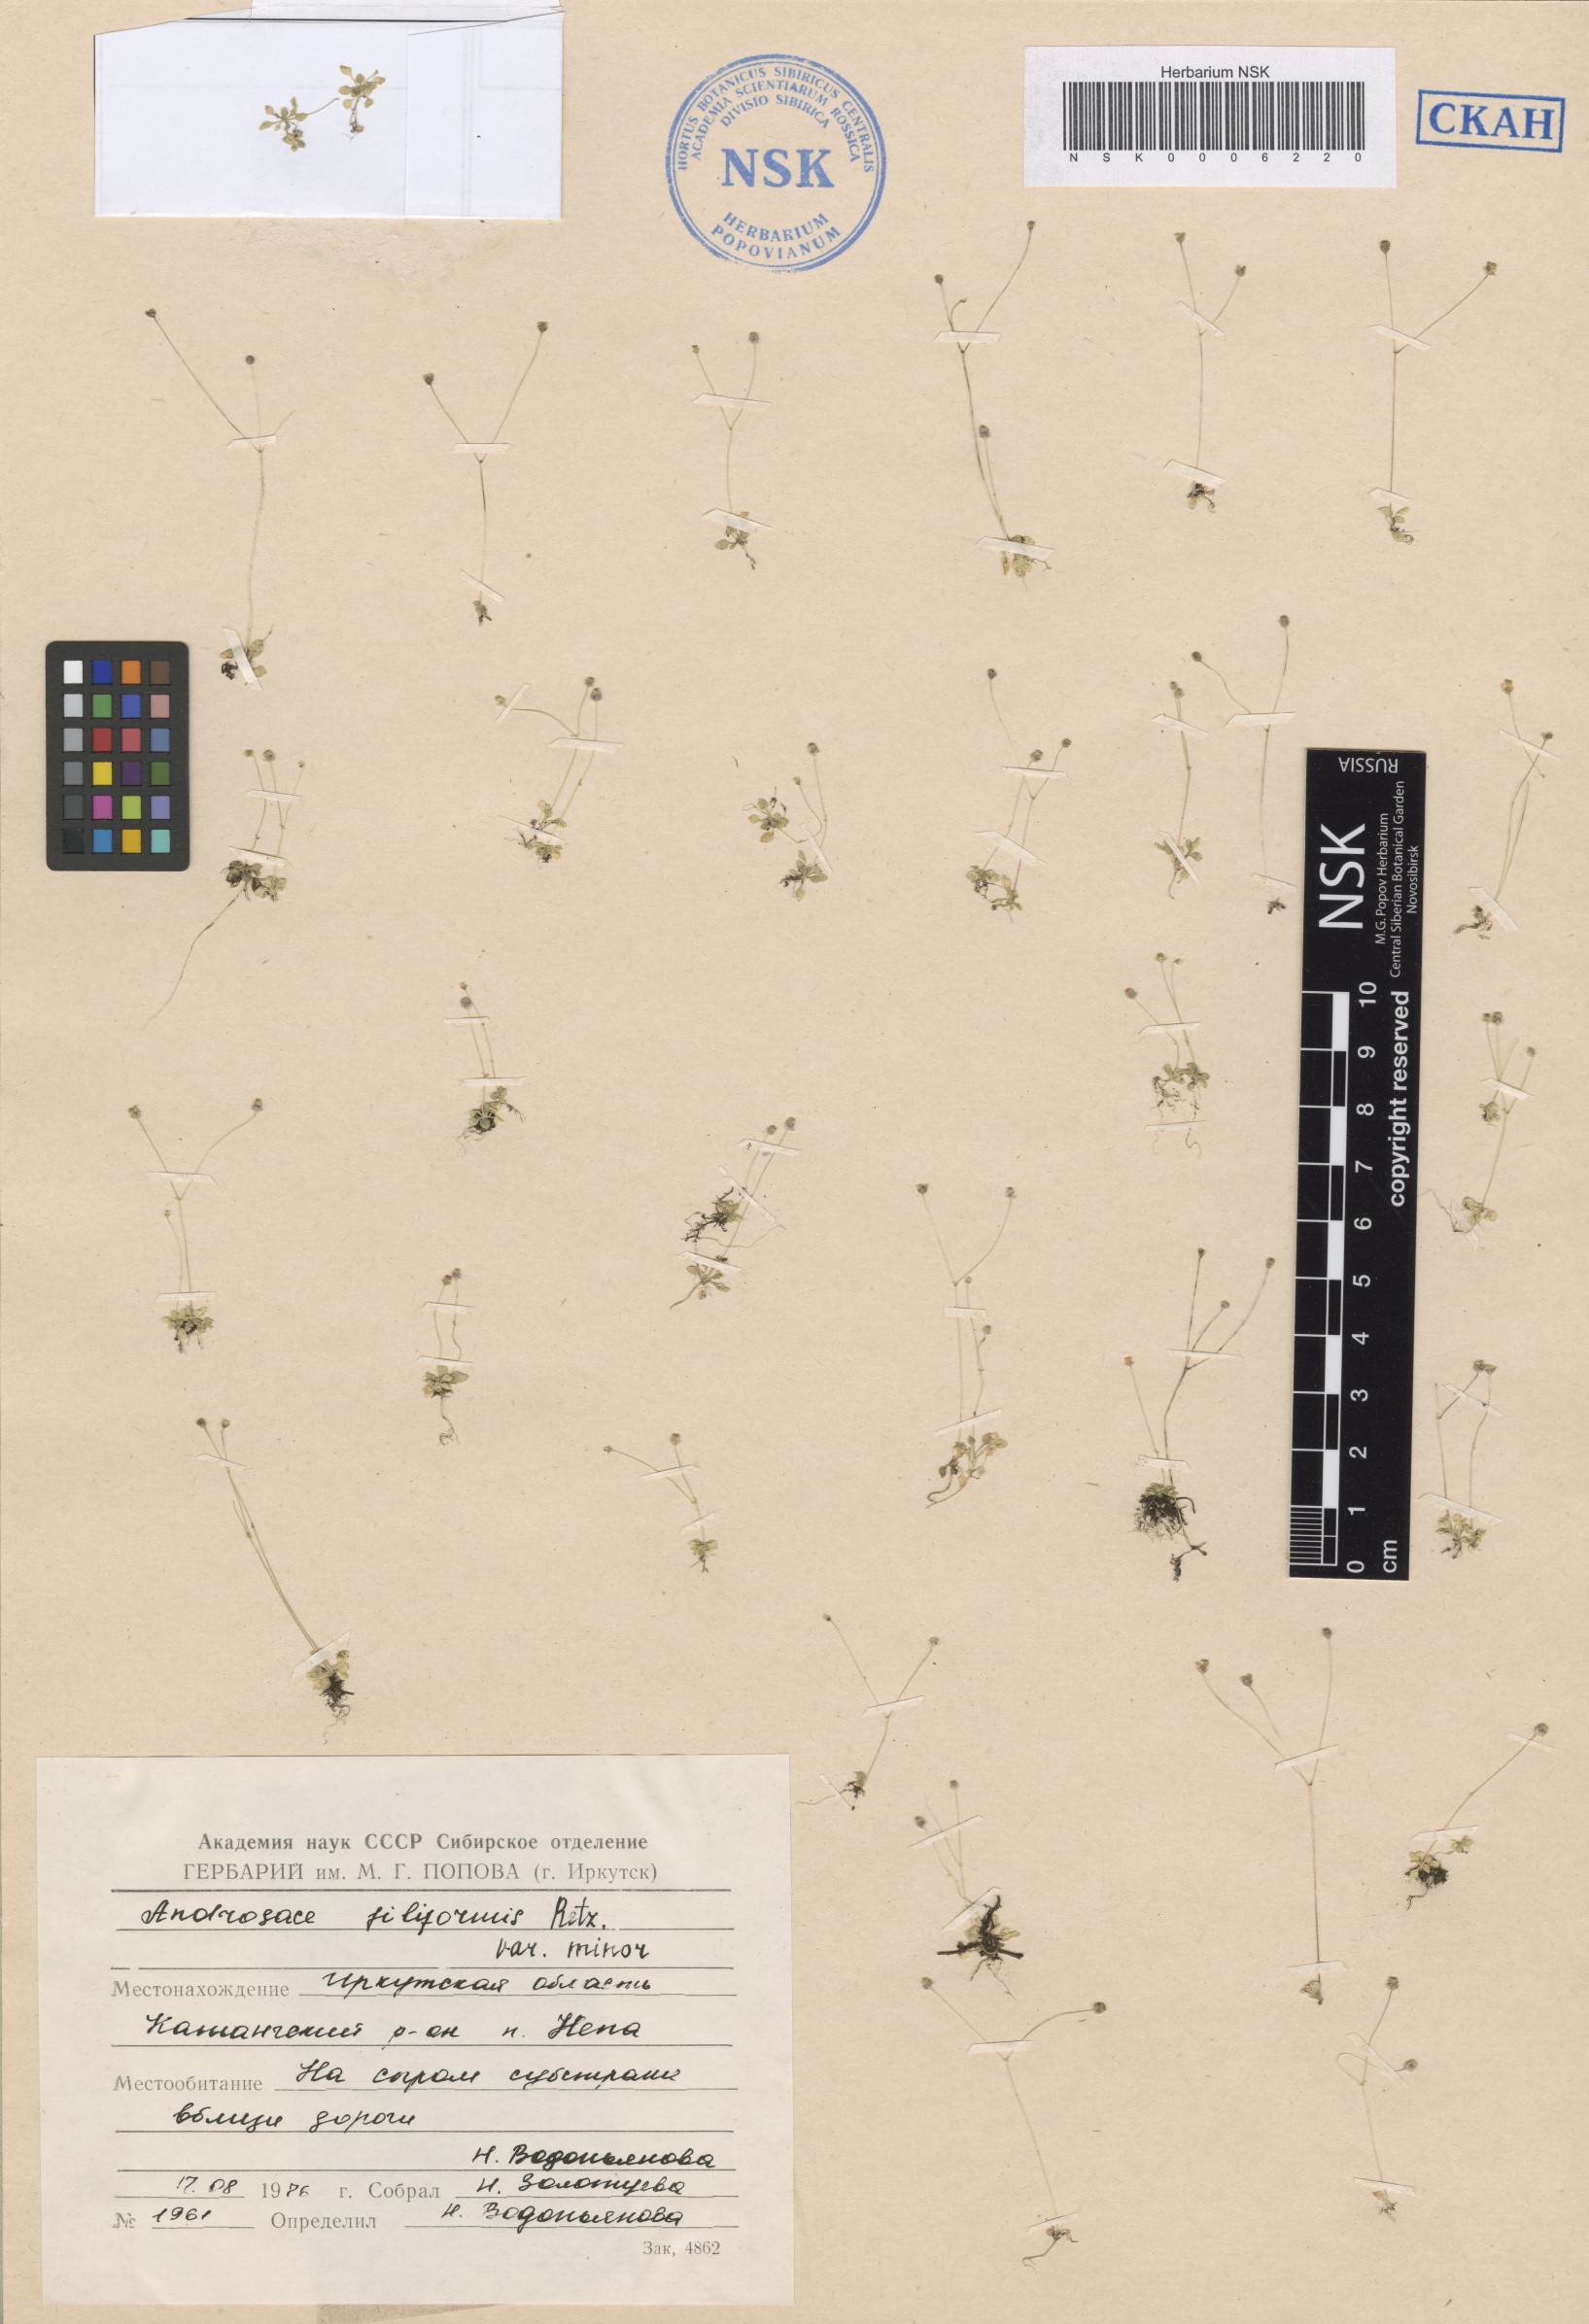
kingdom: Plantae
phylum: Tracheophyta
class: Magnoliopsida
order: Ericales
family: Primulaceae
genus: Androsace
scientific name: Androsace filiformis
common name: Filiform rock jasmine
